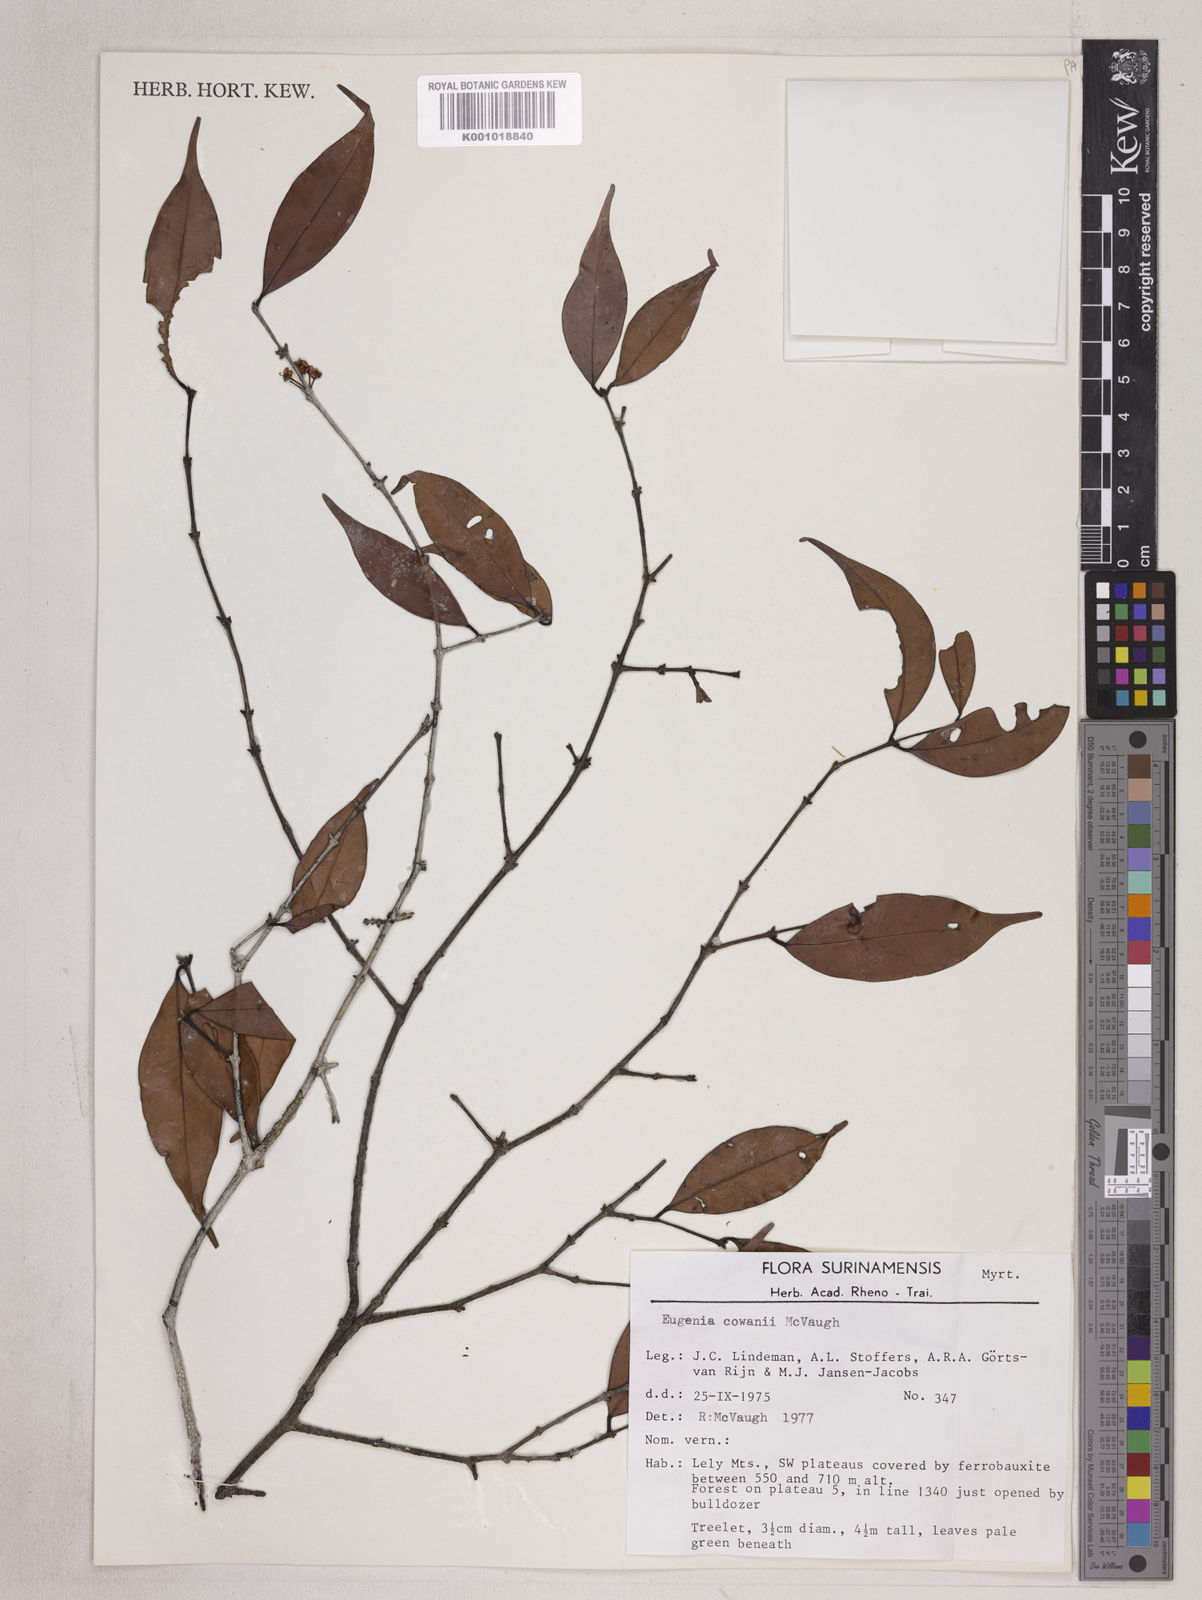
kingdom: Plantae
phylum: Tracheophyta
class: Magnoliopsida
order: Myrtales
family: Myrtaceae
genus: Eugenia
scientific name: Eugenia cowanii
